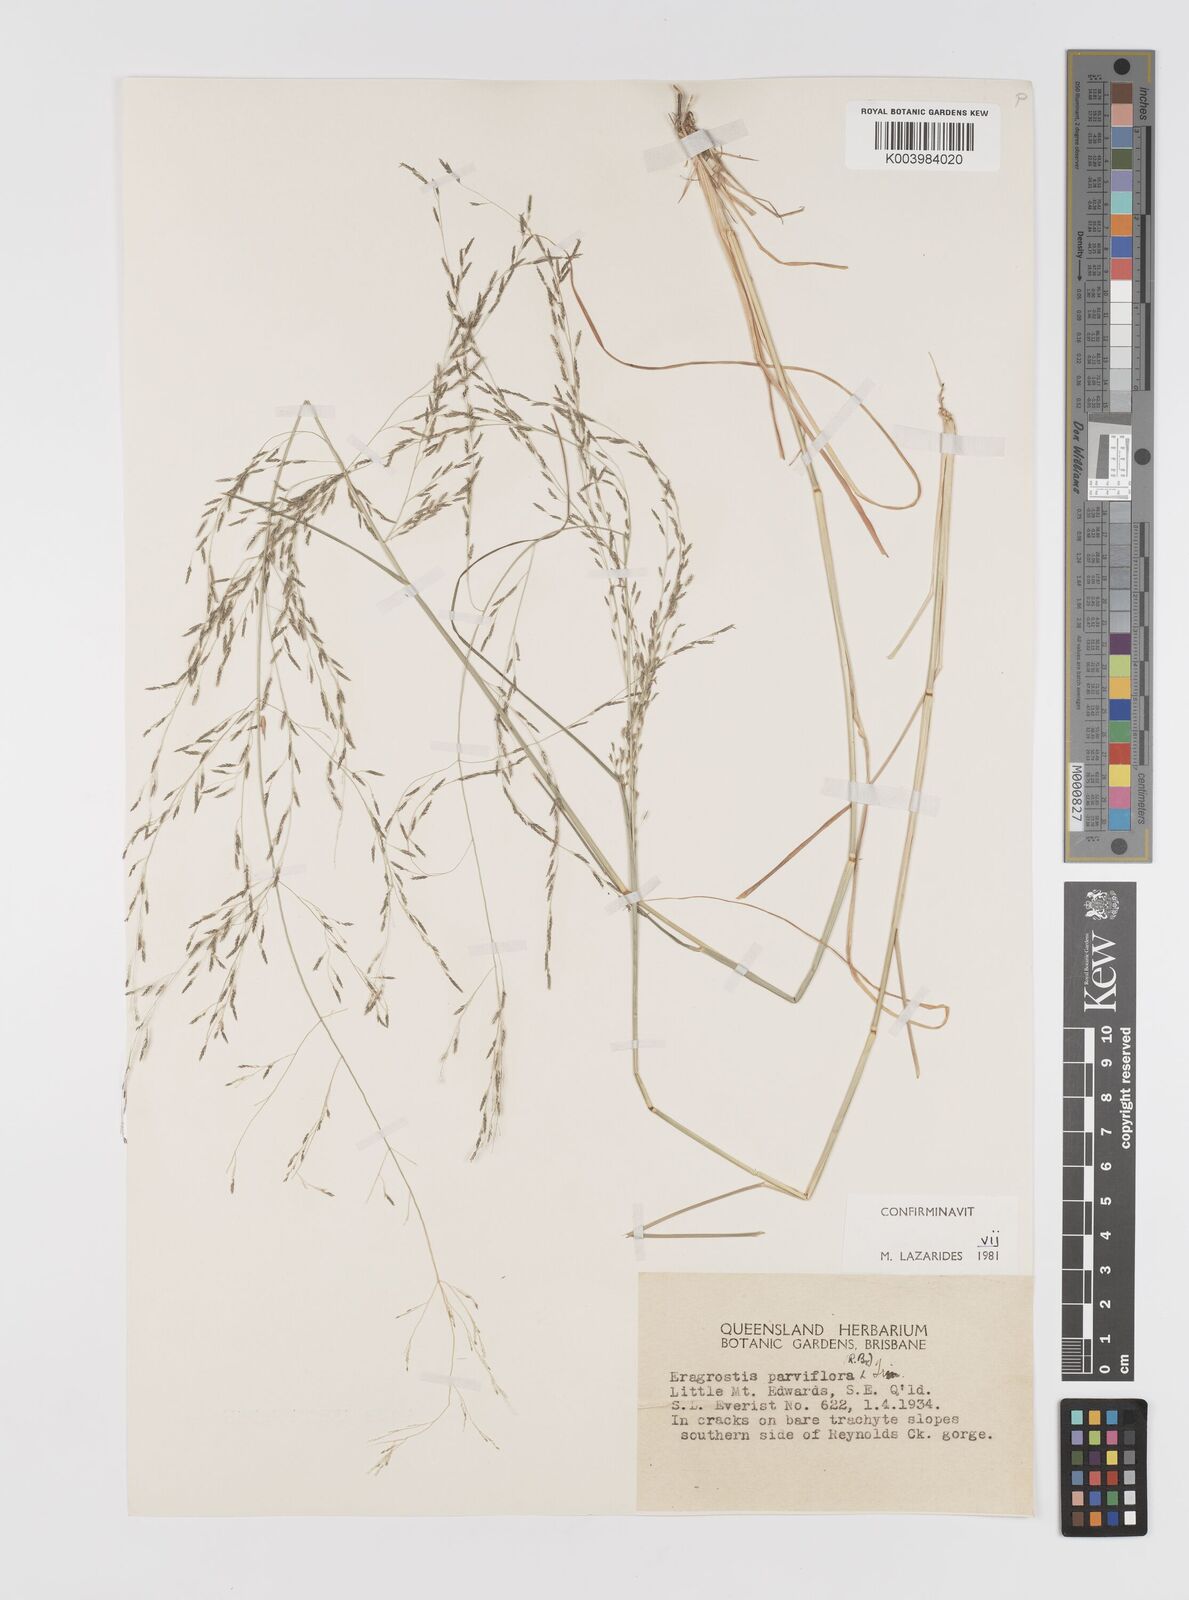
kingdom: Plantae
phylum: Tracheophyta
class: Liliopsida
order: Poales
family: Poaceae
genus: Eragrostis
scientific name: Eragrostis parviflora
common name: Weeping love-grass
